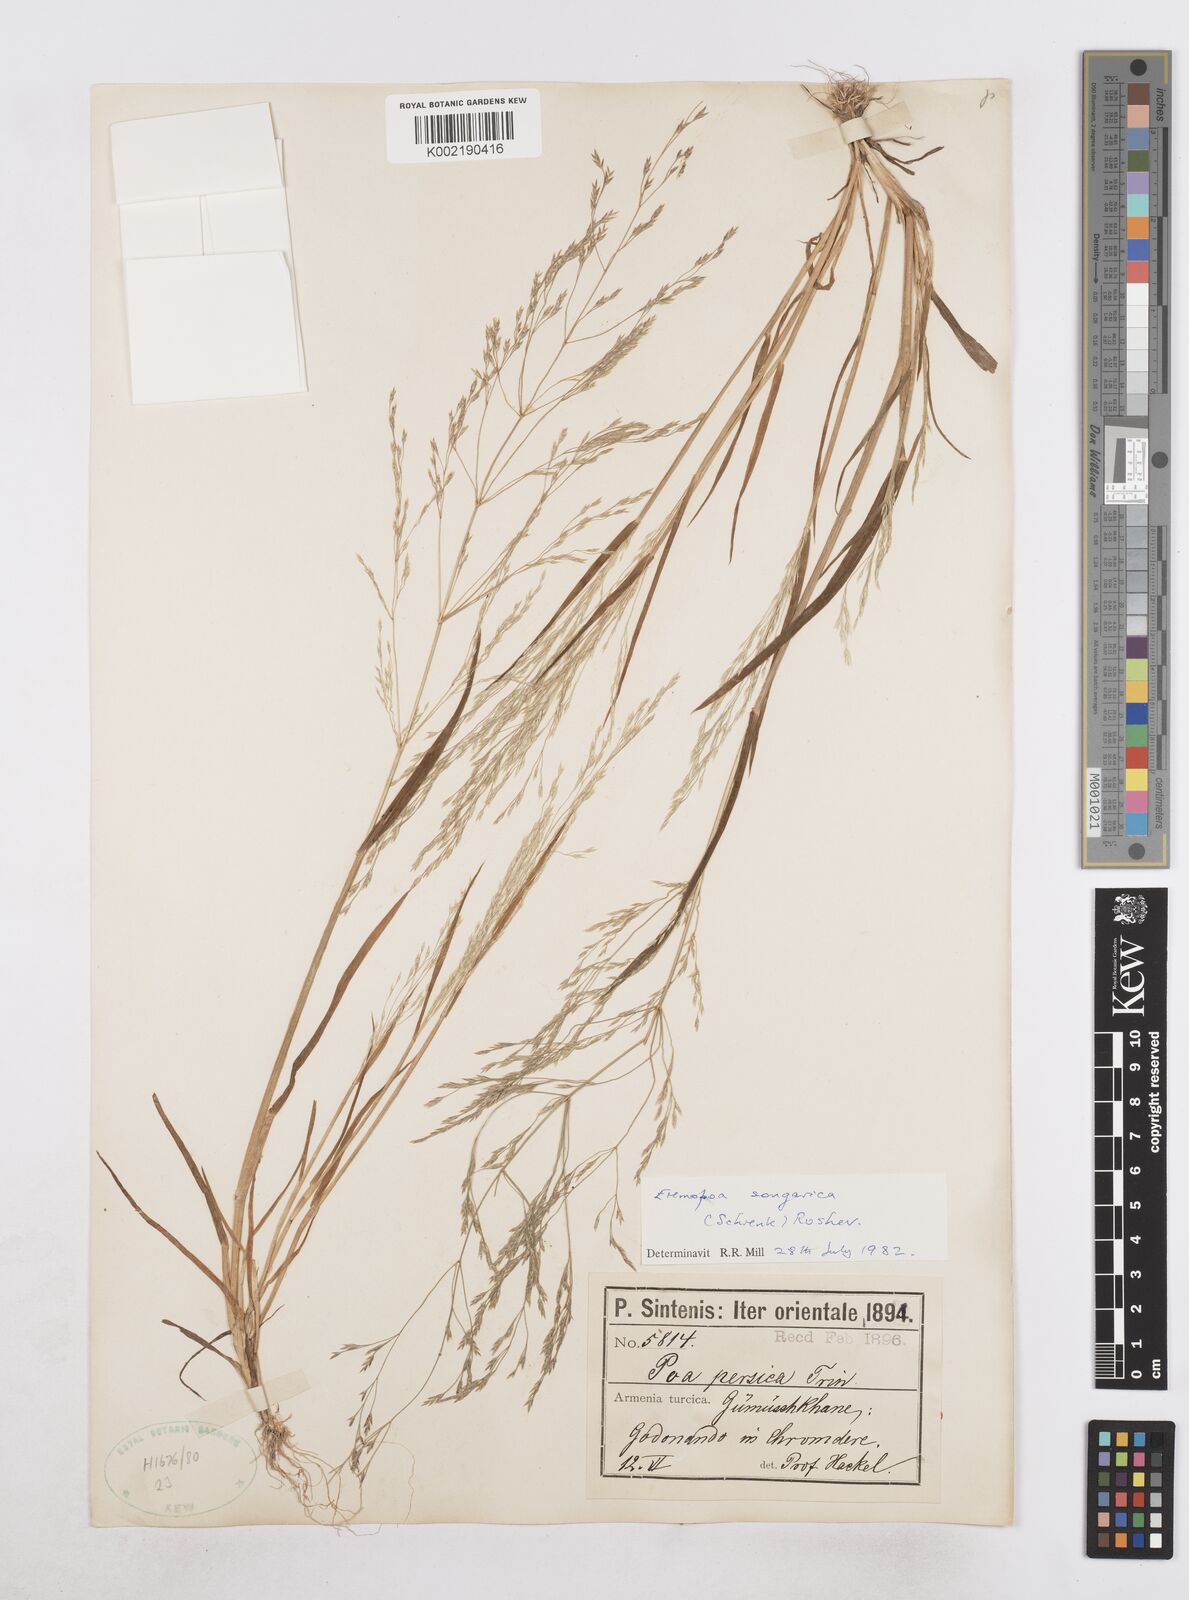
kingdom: Plantae
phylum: Tracheophyta
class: Liliopsida
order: Poales
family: Poaceae
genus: Poa
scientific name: Poa diaphora
